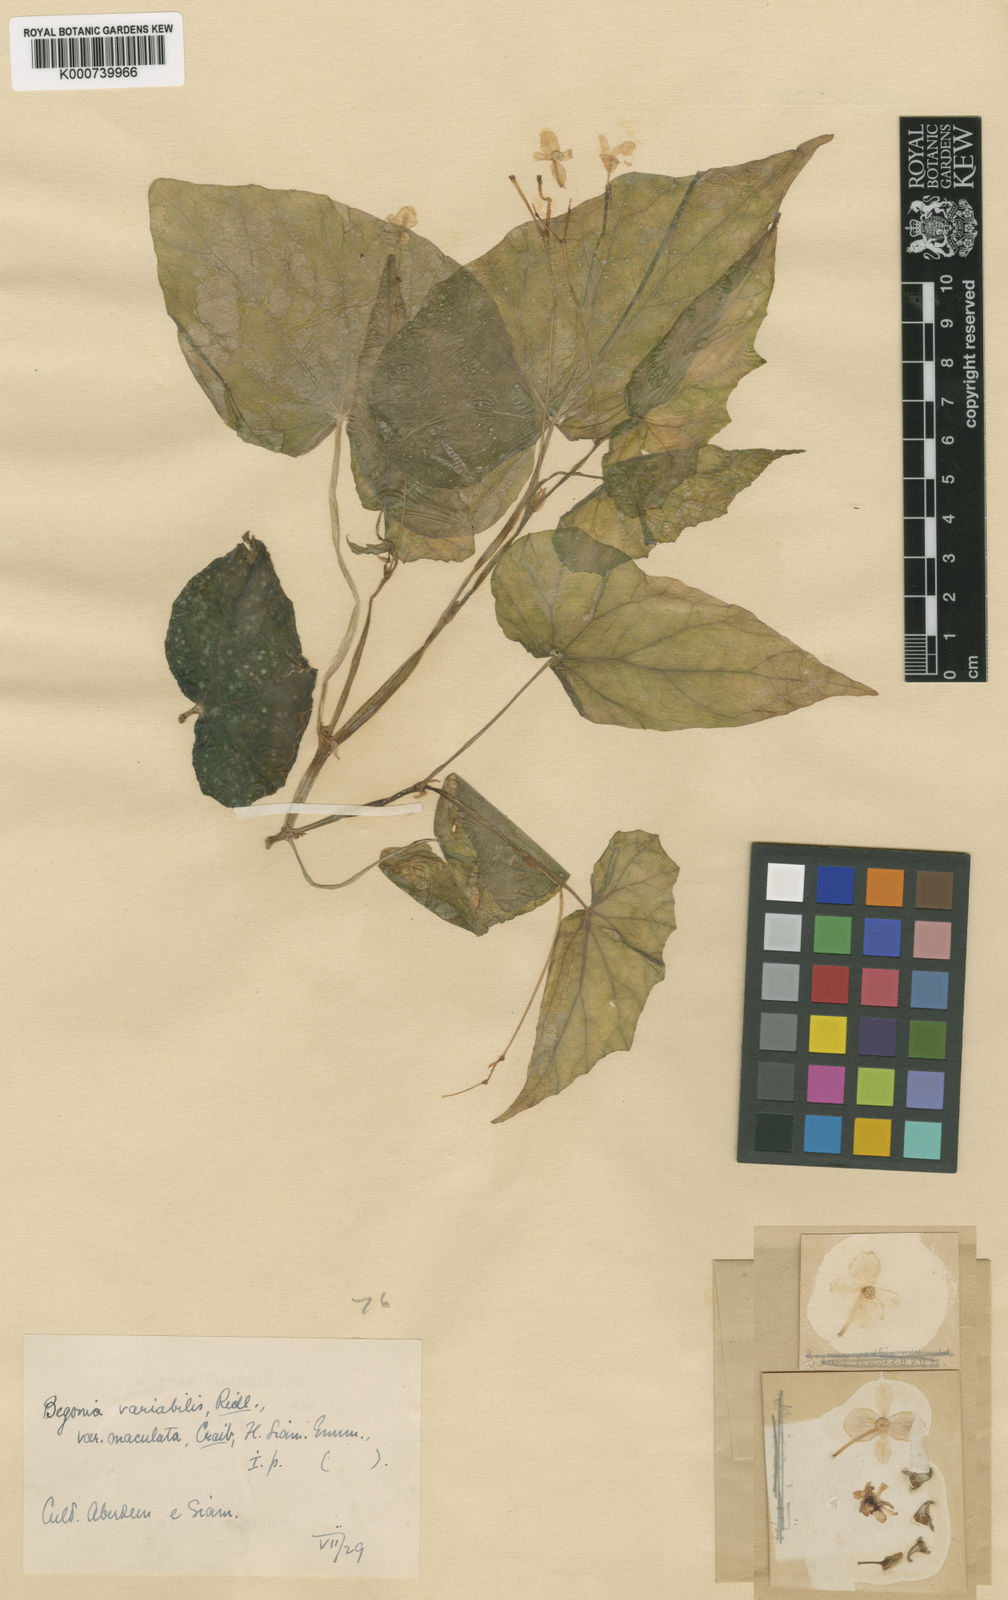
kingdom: Plantae
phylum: Tracheophyta
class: Magnoliopsida
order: Cucurbitales
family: Begoniaceae
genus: Begonia
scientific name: Begonia variabilis
